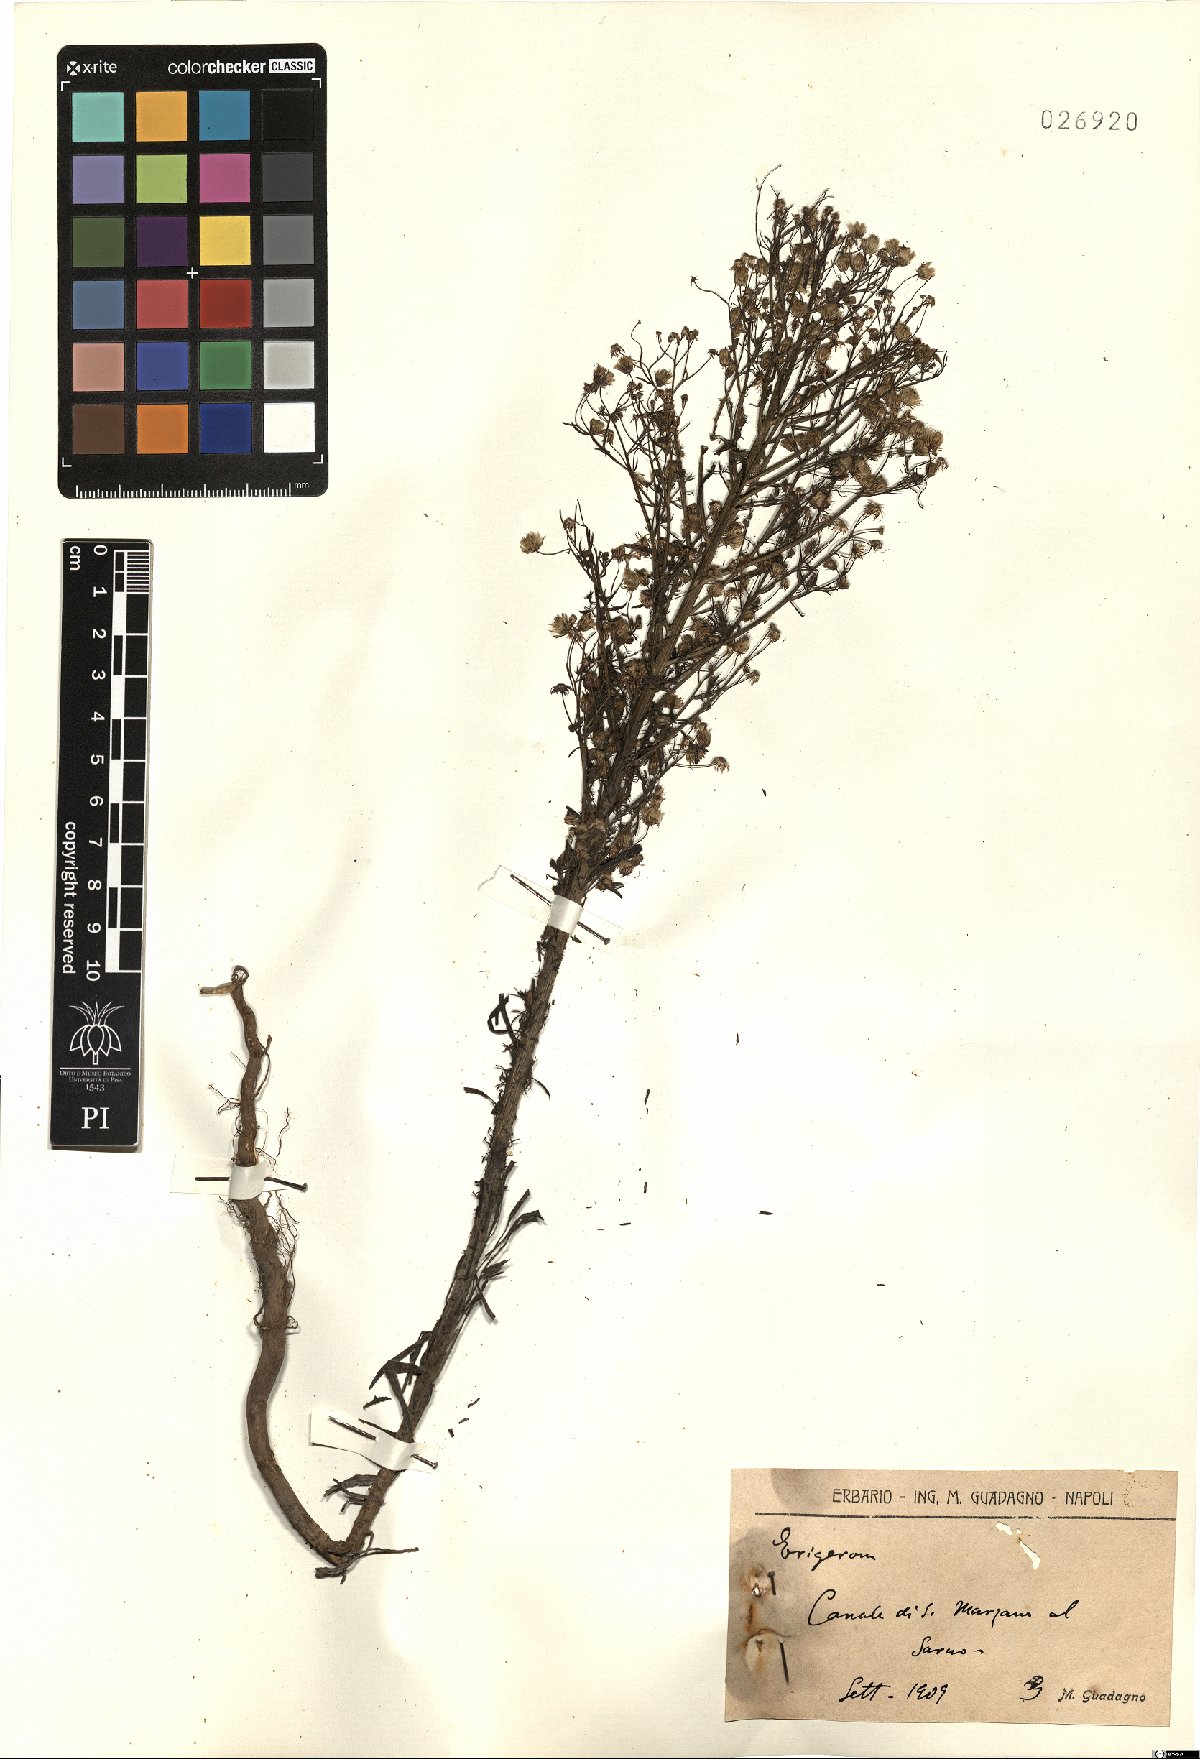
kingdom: Plantae
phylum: Tracheophyta
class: Magnoliopsida
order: Asterales
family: Asteraceae
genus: Erigeron
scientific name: Erigeron
